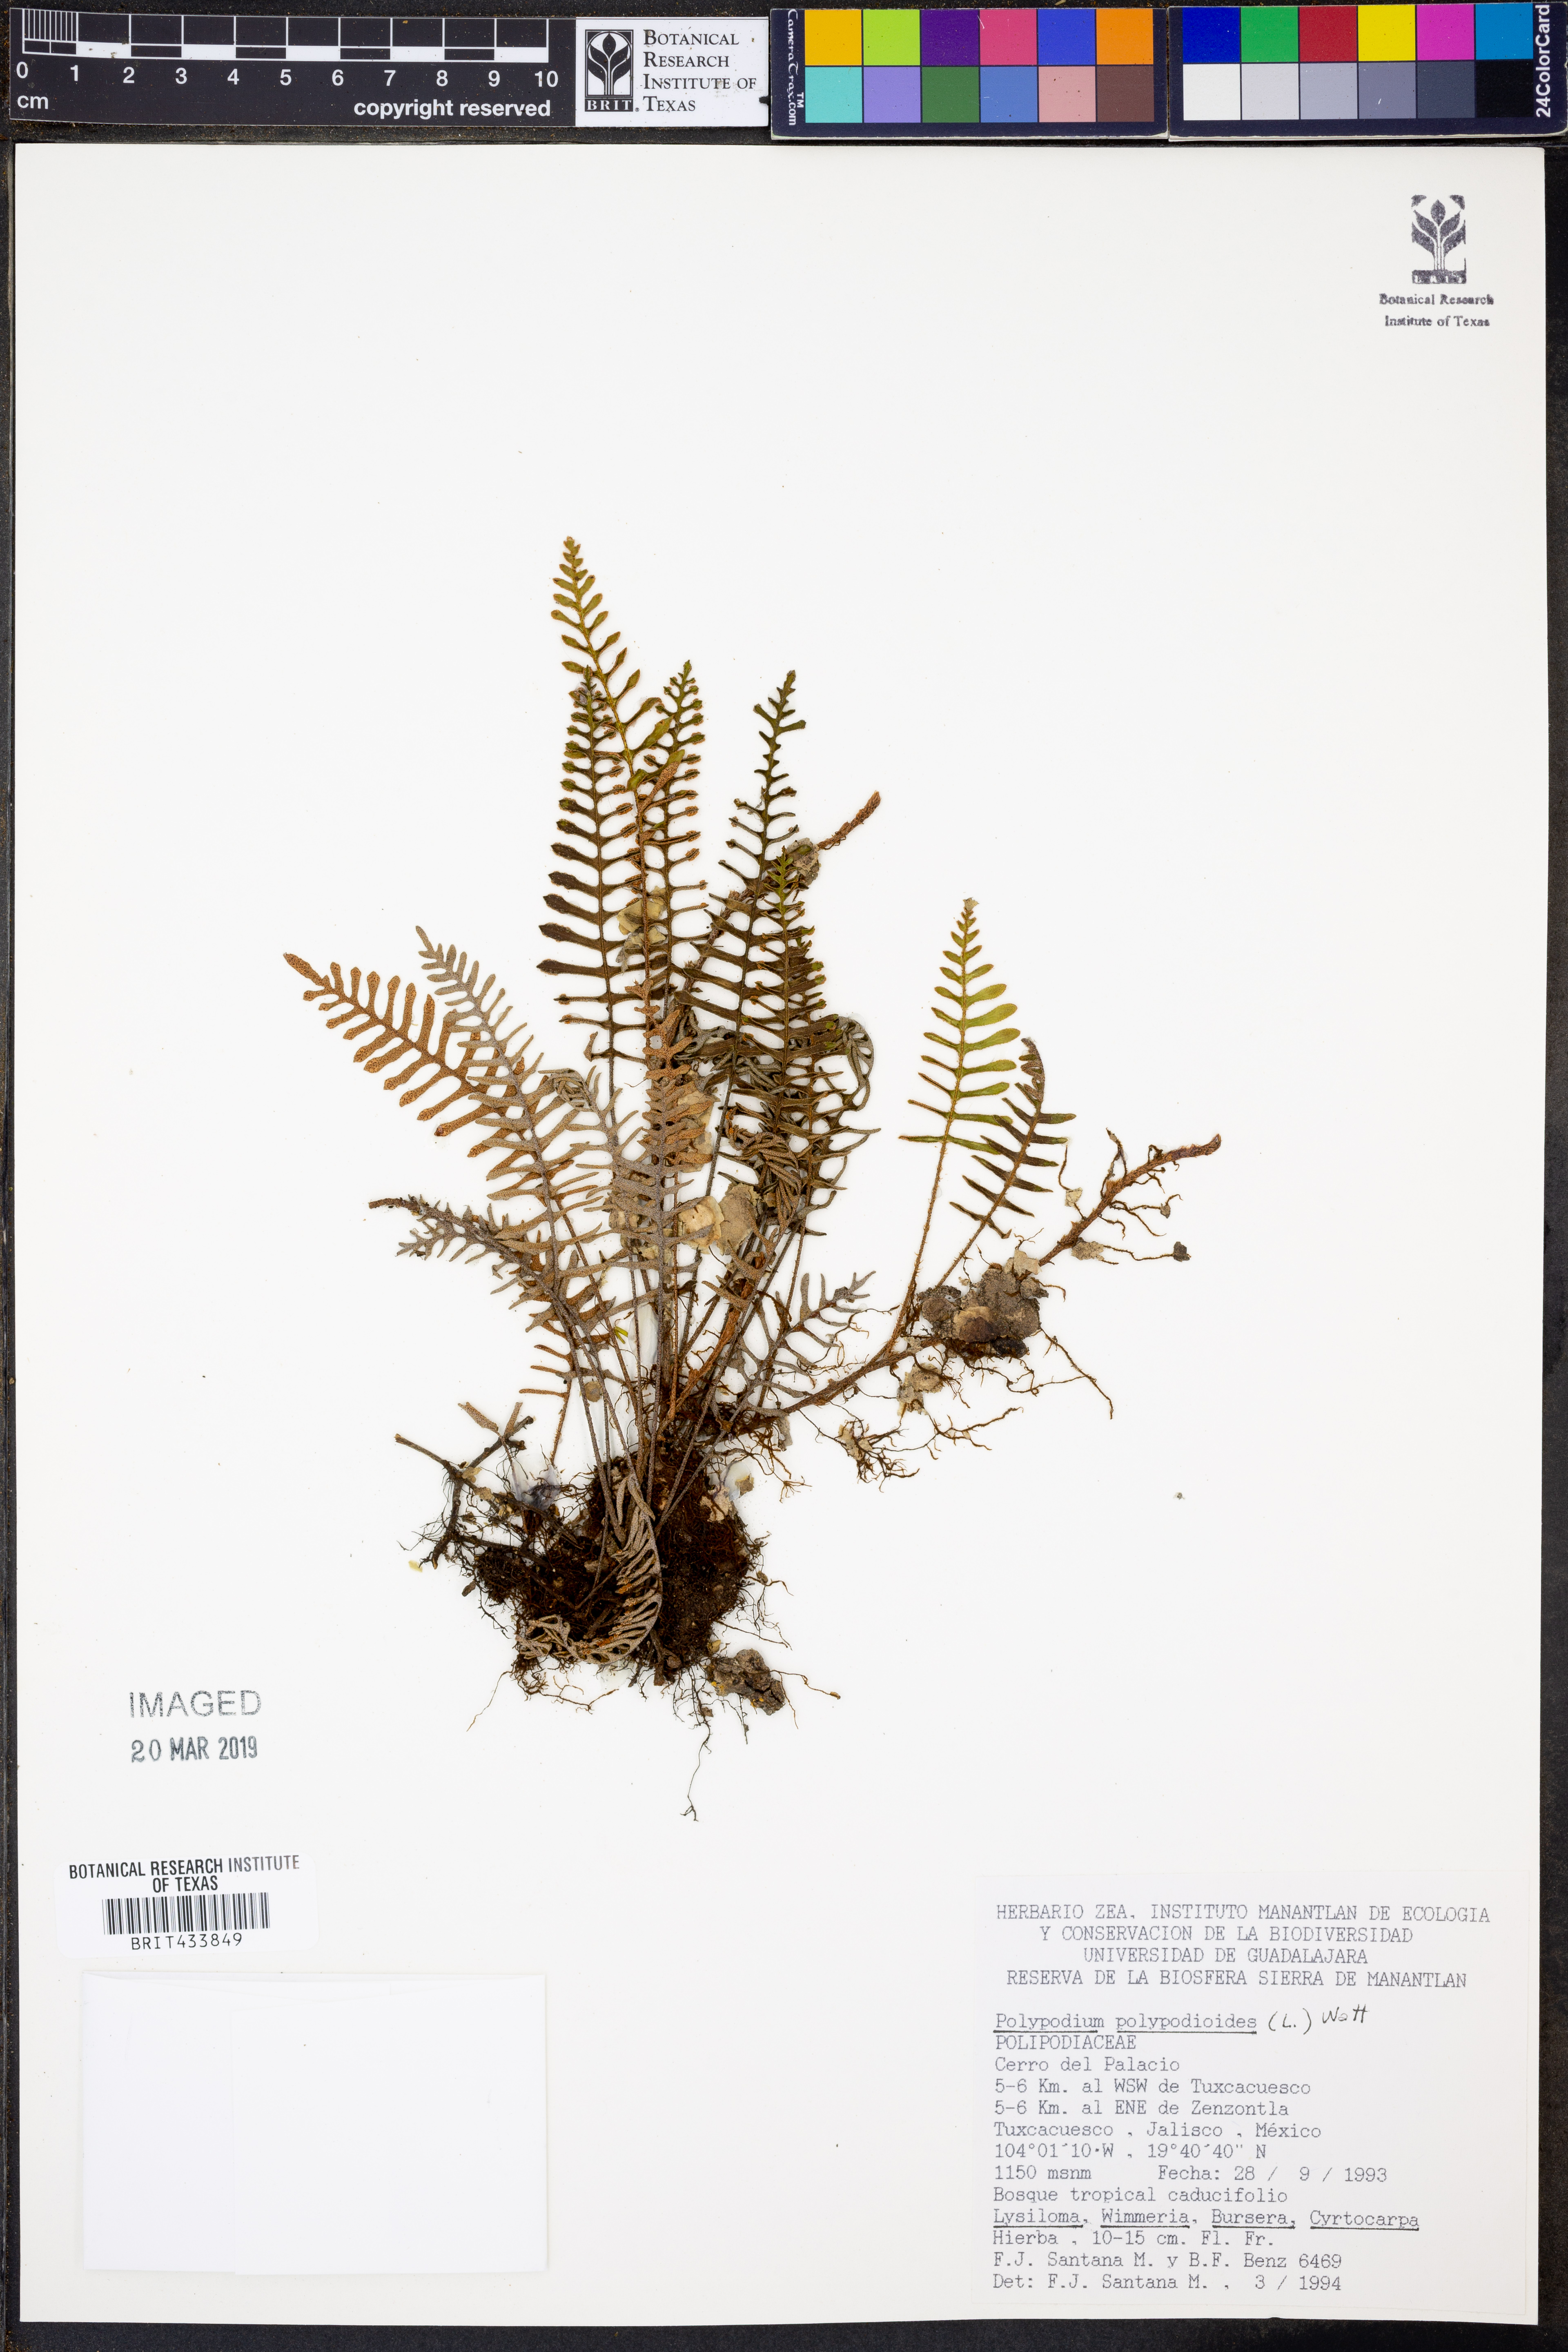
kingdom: Plantae
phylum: Tracheophyta
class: Polypodiopsida
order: Polypodiales
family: Polypodiaceae
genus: Pleopeltis
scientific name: Pleopeltis polypodioides
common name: Resurrection fern
